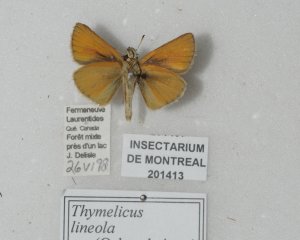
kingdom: Animalia
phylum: Arthropoda
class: Insecta
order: Lepidoptera
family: Hesperiidae
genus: Thymelicus
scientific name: Thymelicus lineola
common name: European Skipper
